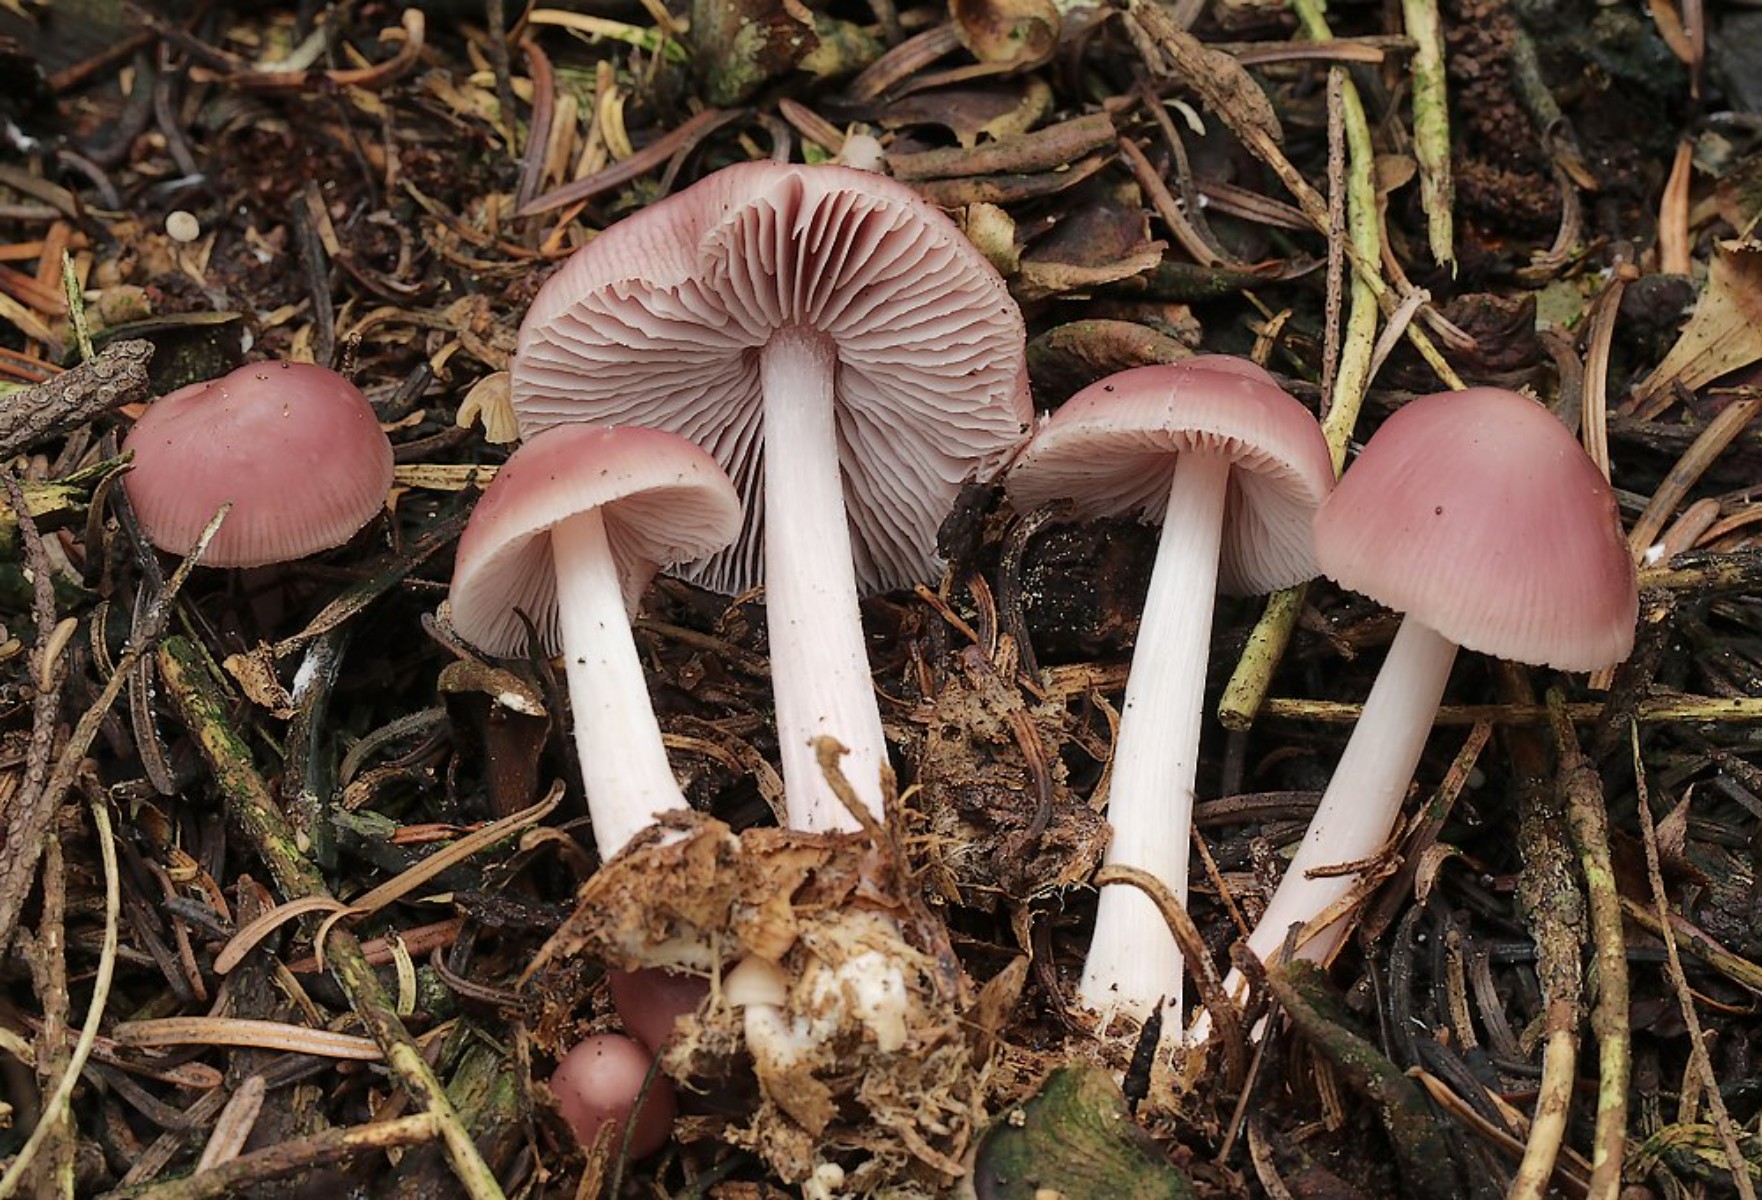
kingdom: Fungi
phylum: Basidiomycota
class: Agaricomycetes
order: Agaricales
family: Mycenaceae
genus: Mycena
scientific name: Mycena rosea
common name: rosa huesvamp
